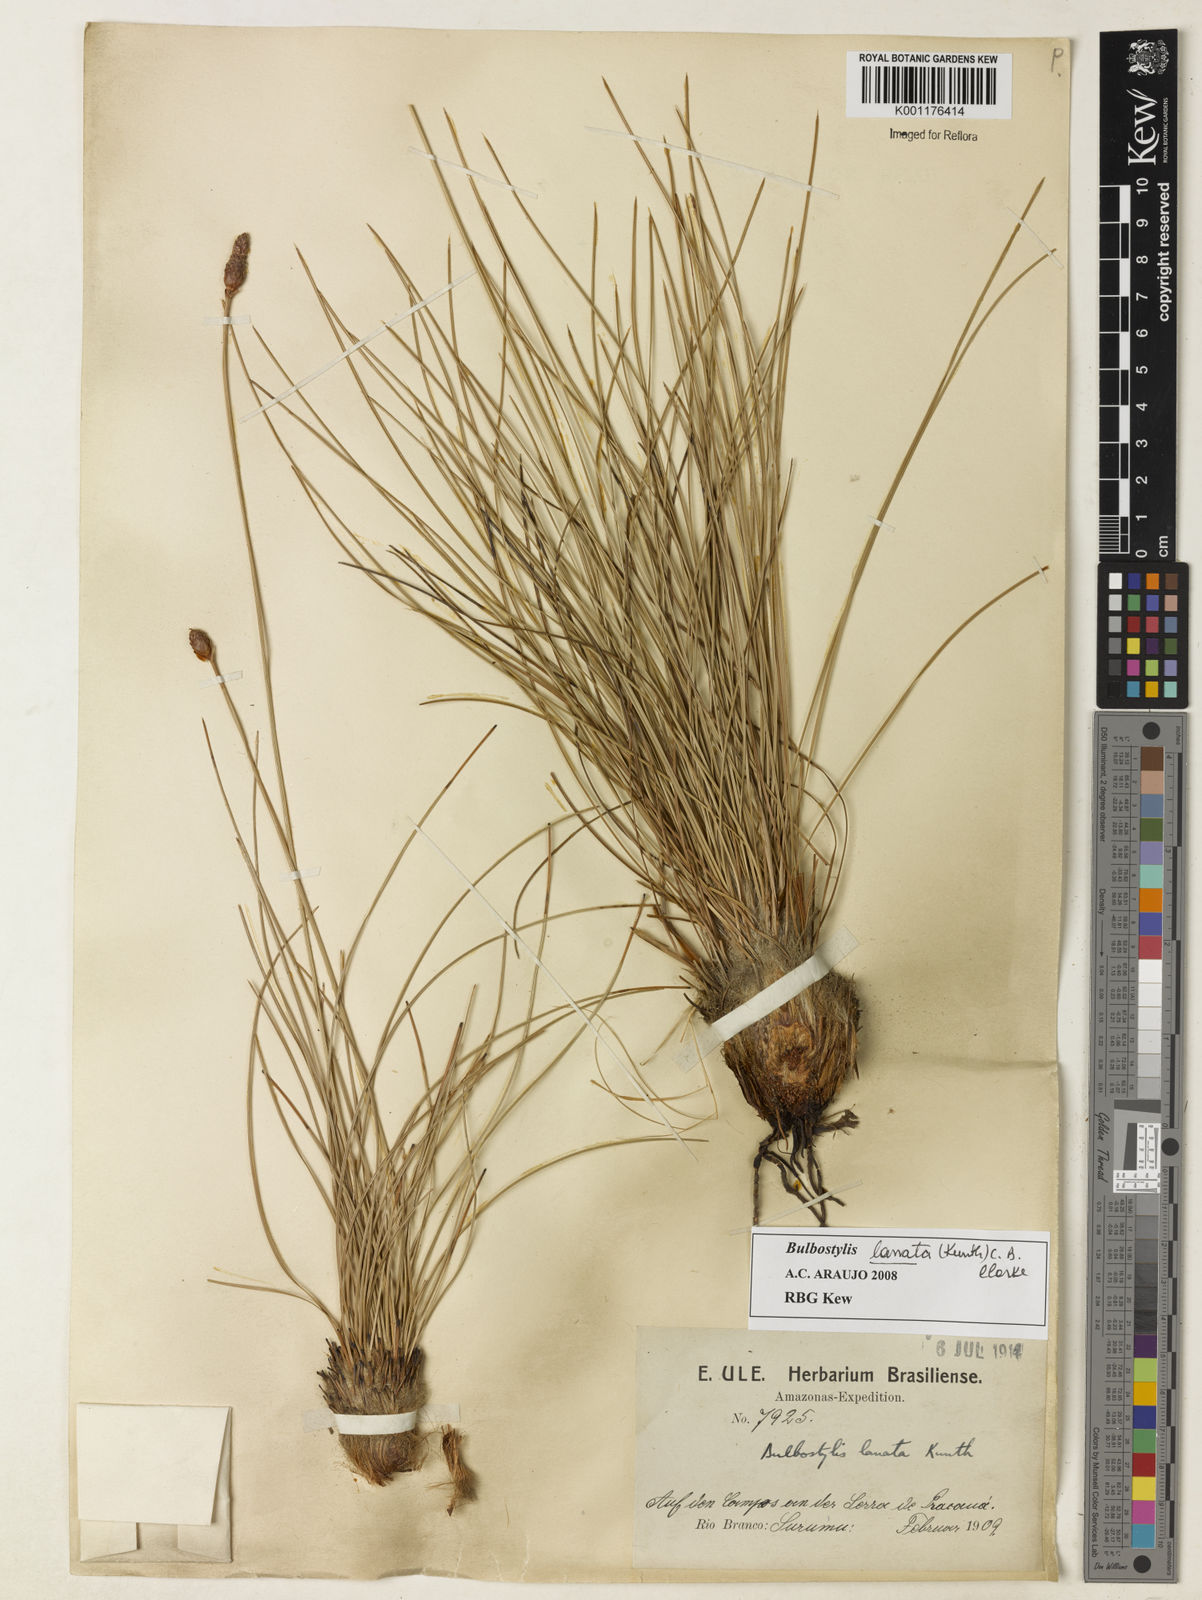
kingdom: Plantae
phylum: Tracheophyta
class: Liliopsida
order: Poales
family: Cyperaceae
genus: Bulbostylis
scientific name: Bulbostylis lanata
